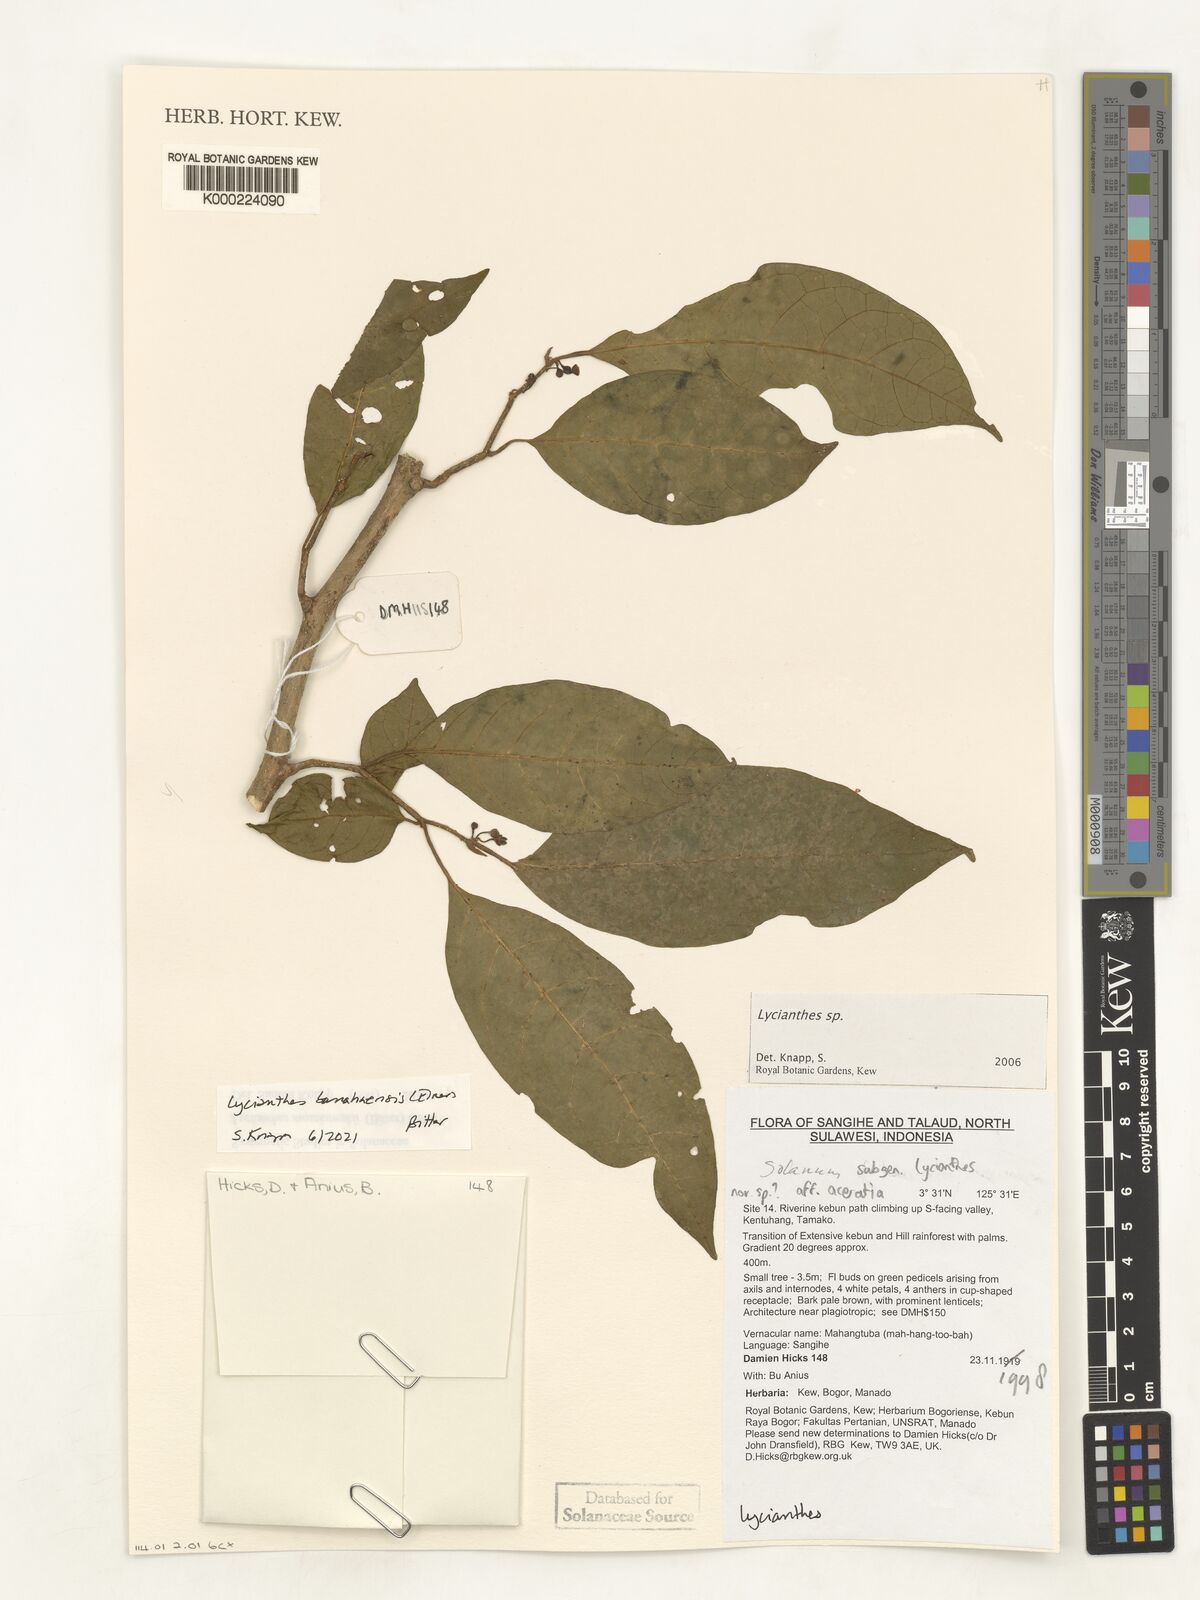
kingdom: Plantae
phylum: Tracheophyta
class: Magnoliopsida
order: Solanales
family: Solanaceae
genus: Lycianthes
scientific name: Lycianthes
